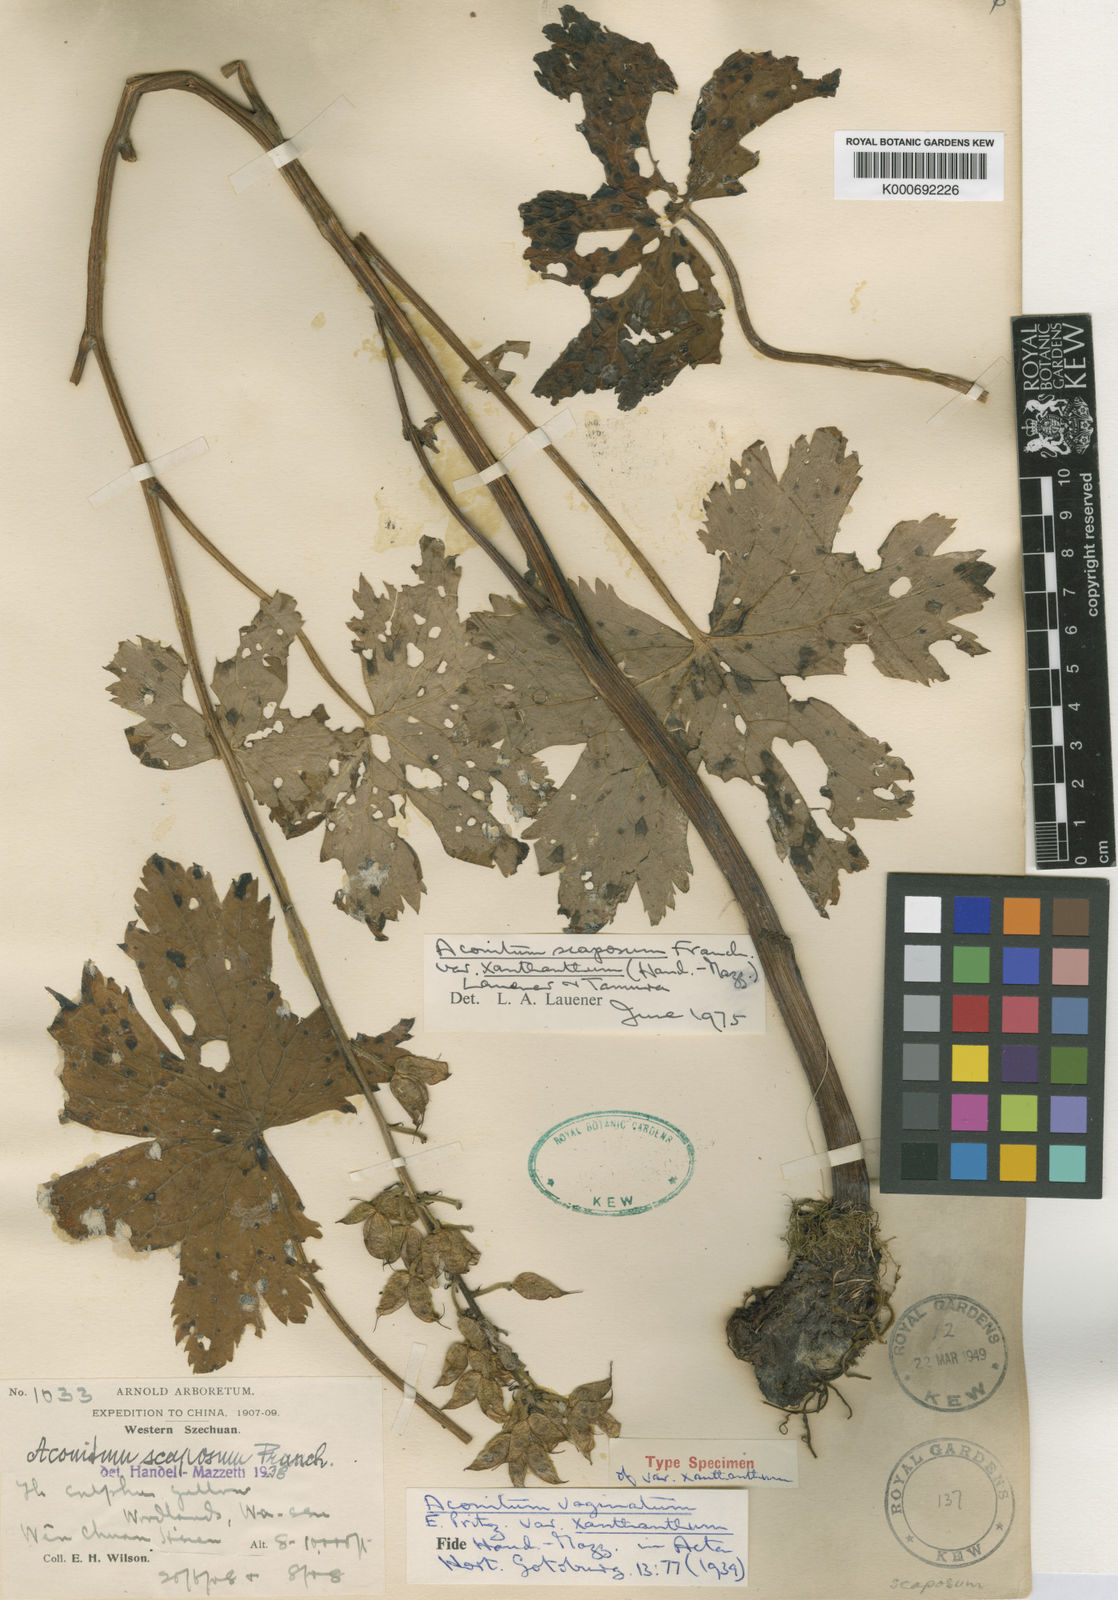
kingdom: Plantae
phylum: Tracheophyta
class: Magnoliopsida
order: Ranunculales
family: Ranunculaceae
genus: Aconitum
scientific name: Aconitum scaposum
